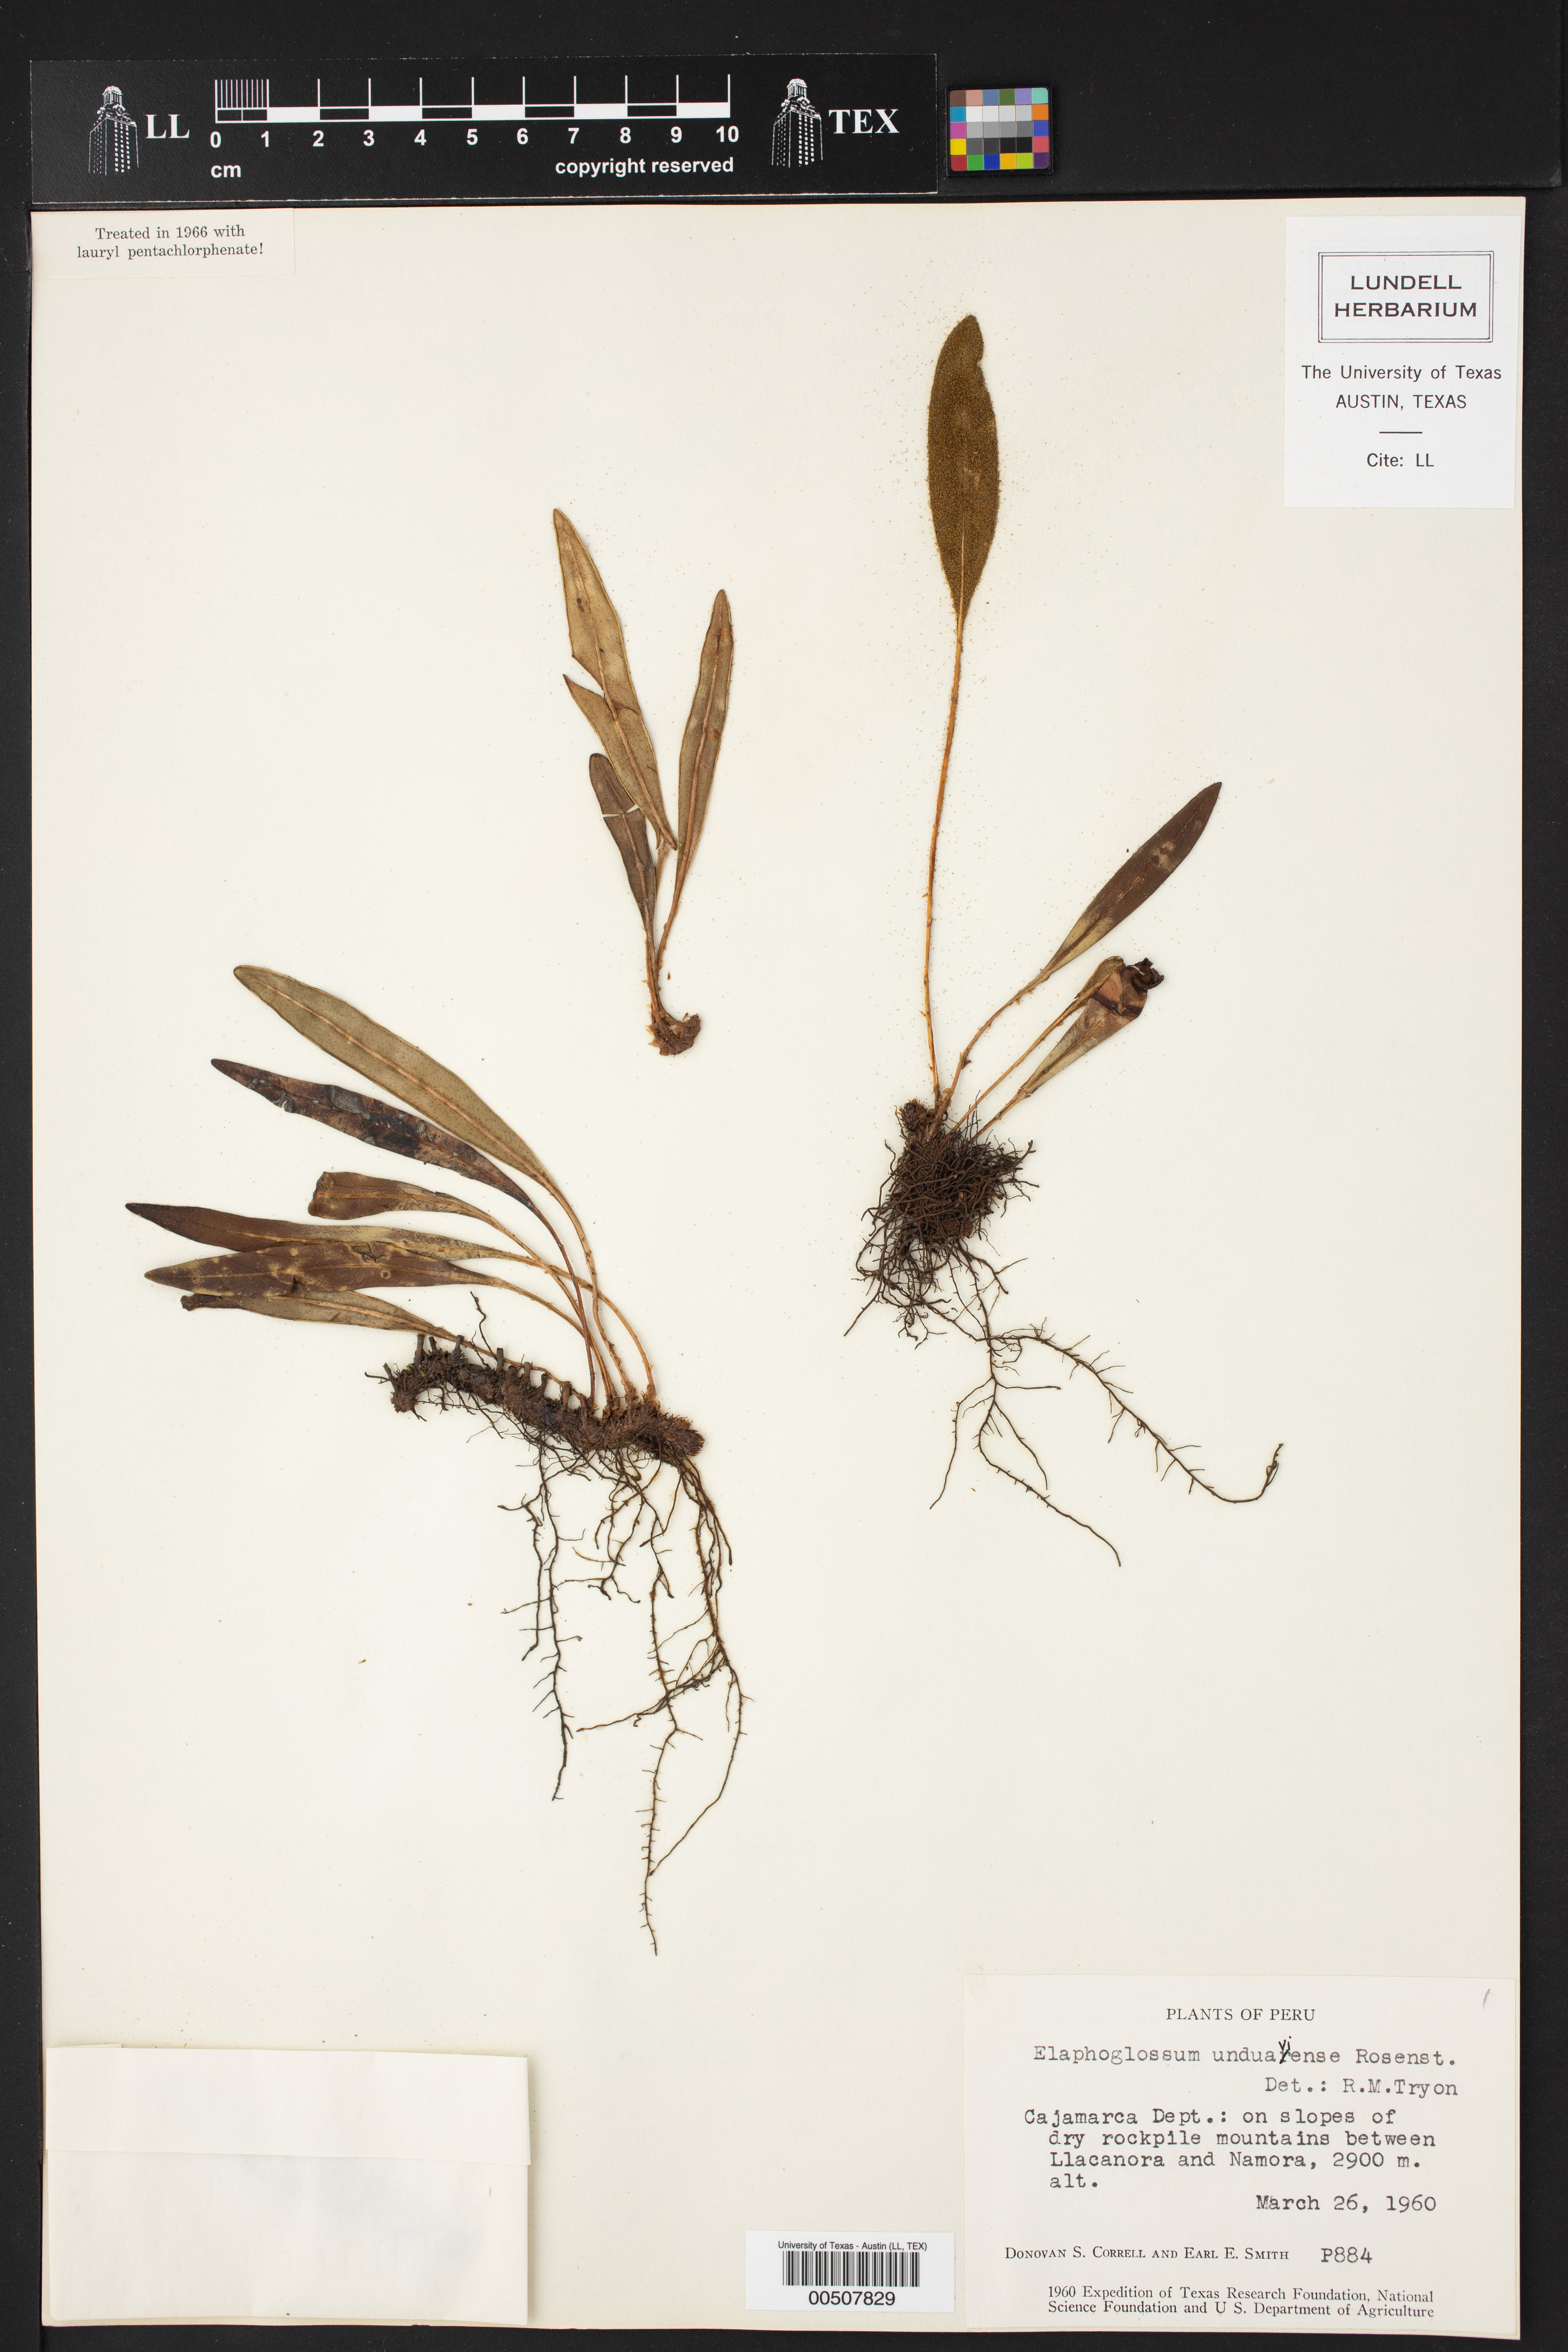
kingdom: Plantae
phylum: Tracheophyta
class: Polypodiopsida
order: Polypodiales
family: Dryopteridaceae
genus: Elaphoglossum
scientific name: Elaphoglossum unduaviense
